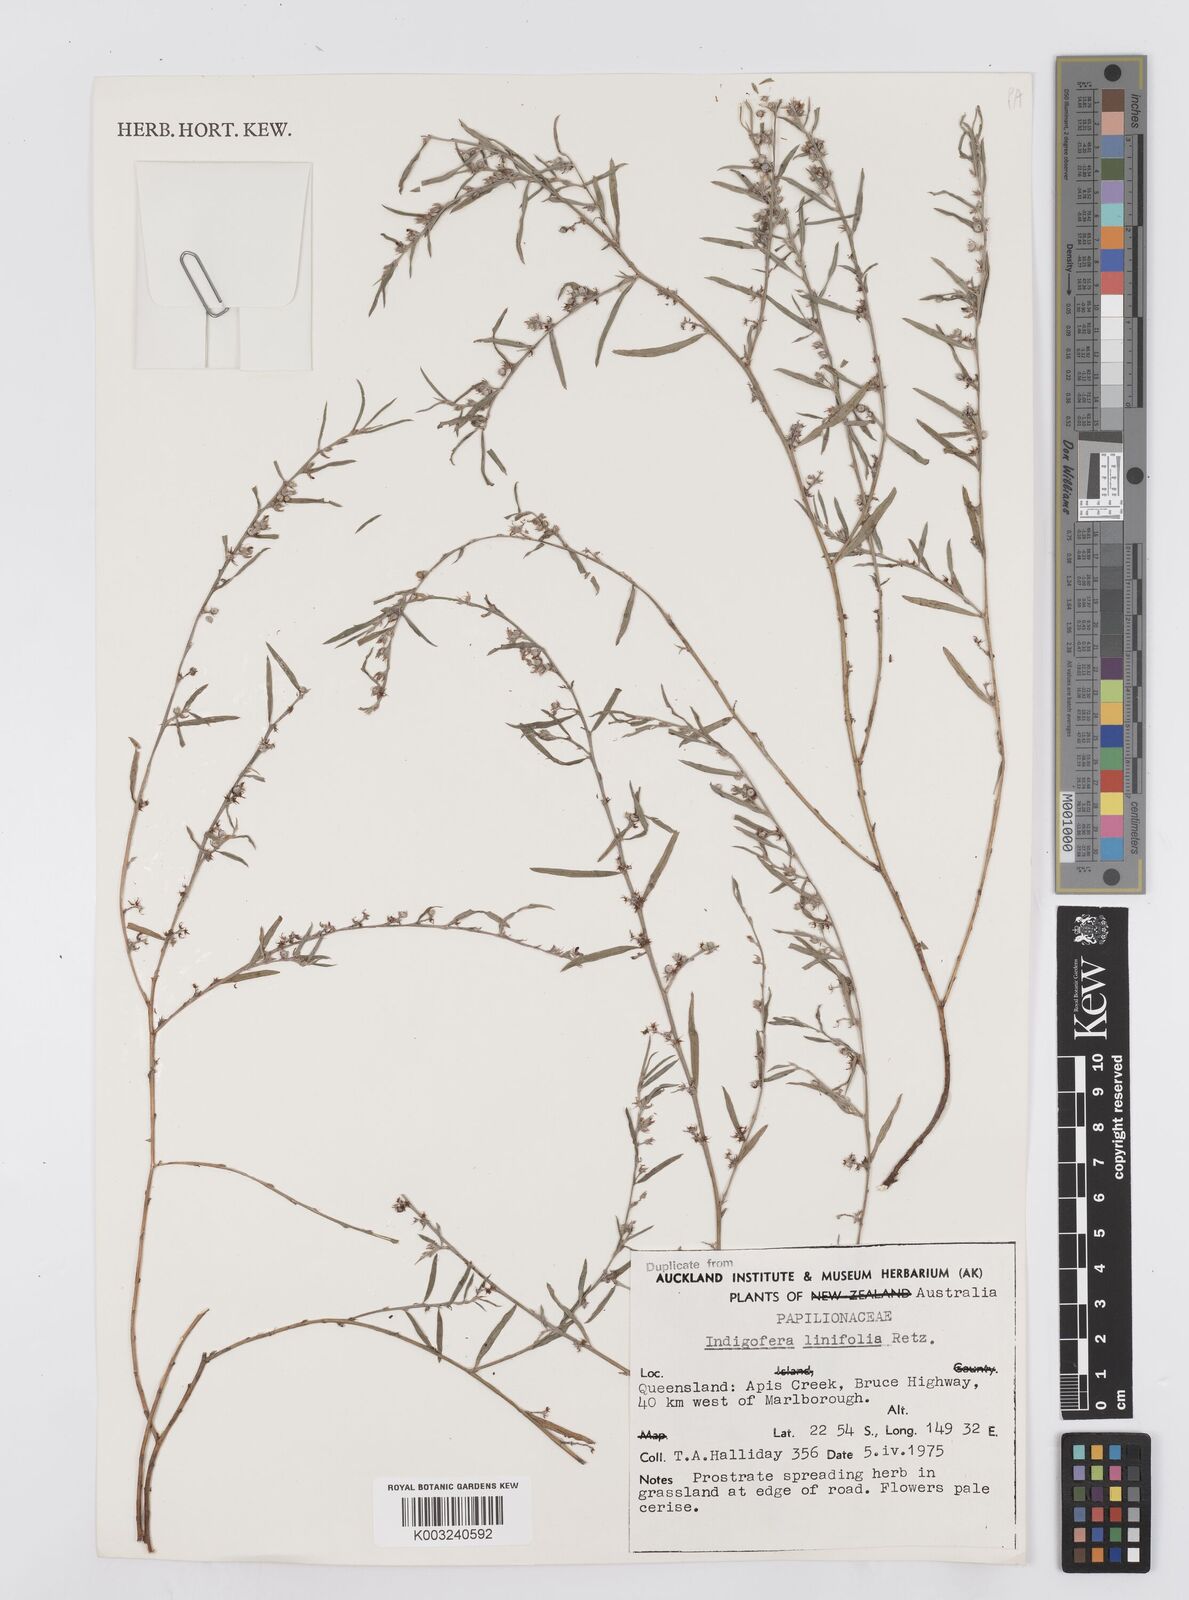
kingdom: Plantae
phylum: Tracheophyta
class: Magnoliopsida
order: Fabales
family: Fabaceae
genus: Indigofera
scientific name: Indigofera linifolia
